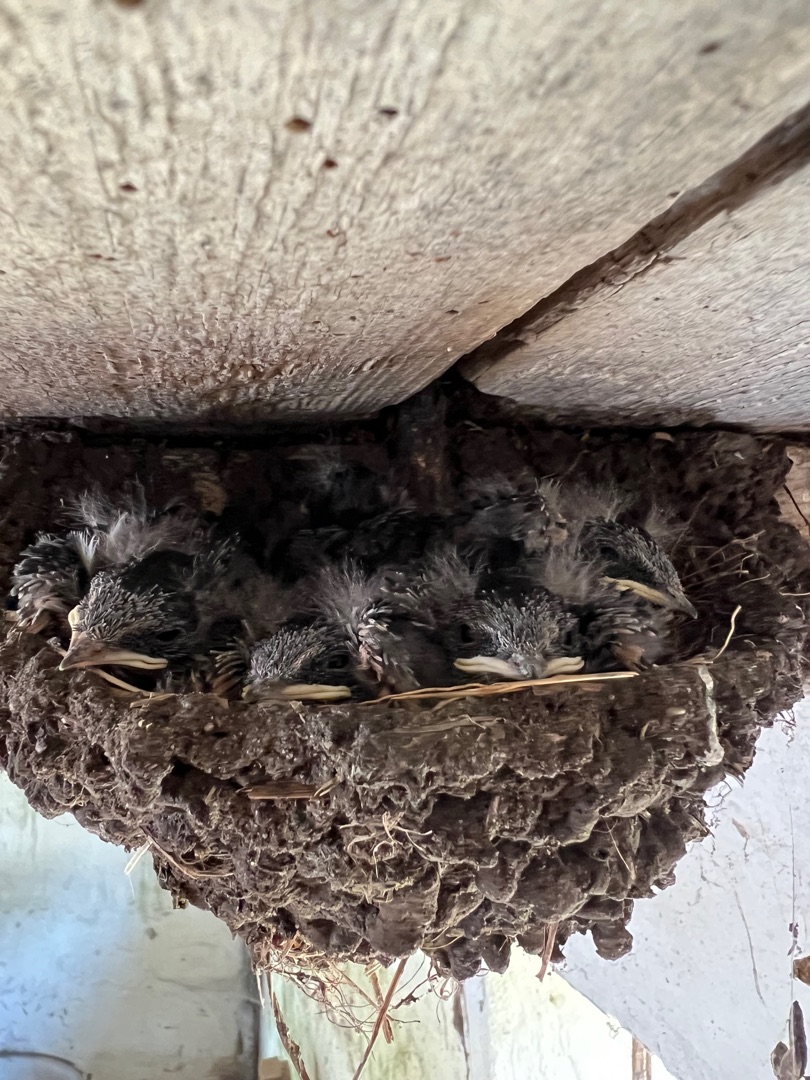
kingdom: Animalia
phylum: Chordata
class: Aves
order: Passeriformes
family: Hirundinidae
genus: Hirundo
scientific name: Hirundo rustica
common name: Landsvale
